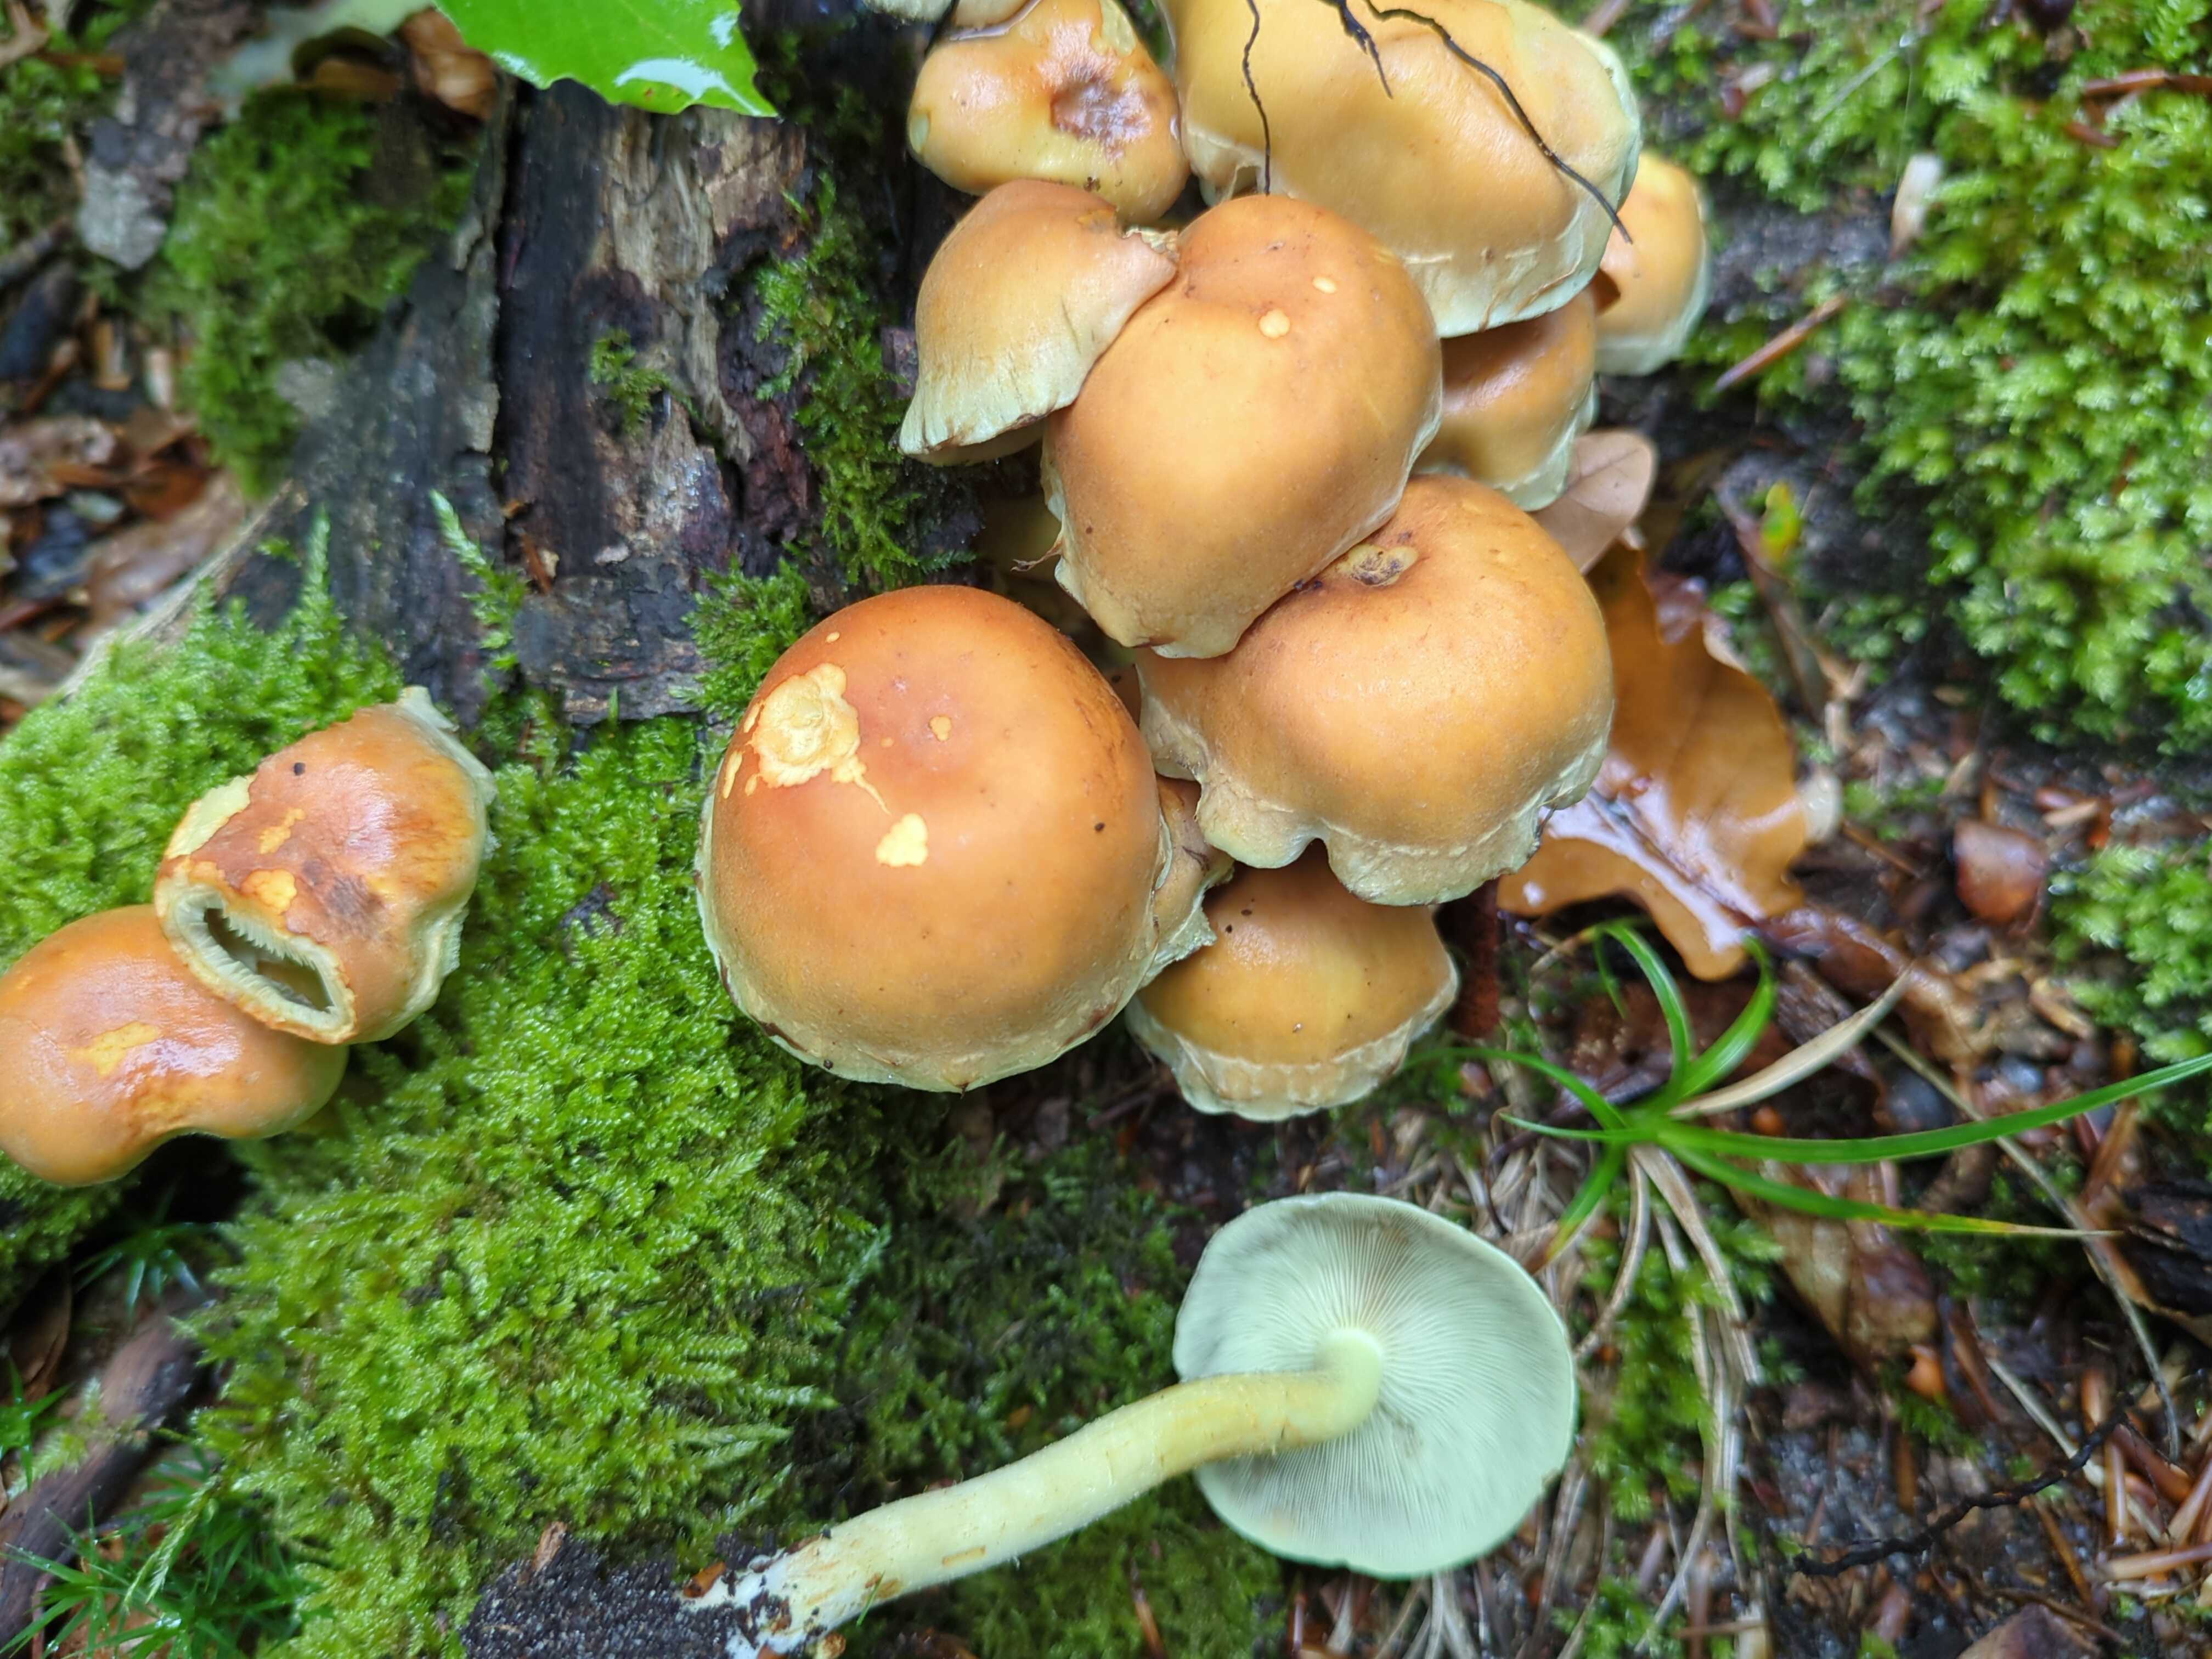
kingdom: Fungi
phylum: Basidiomycota
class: Agaricomycetes
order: Agaricales
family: Strophariaceae
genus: Hypholoma
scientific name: Hypholoma fasciculare
